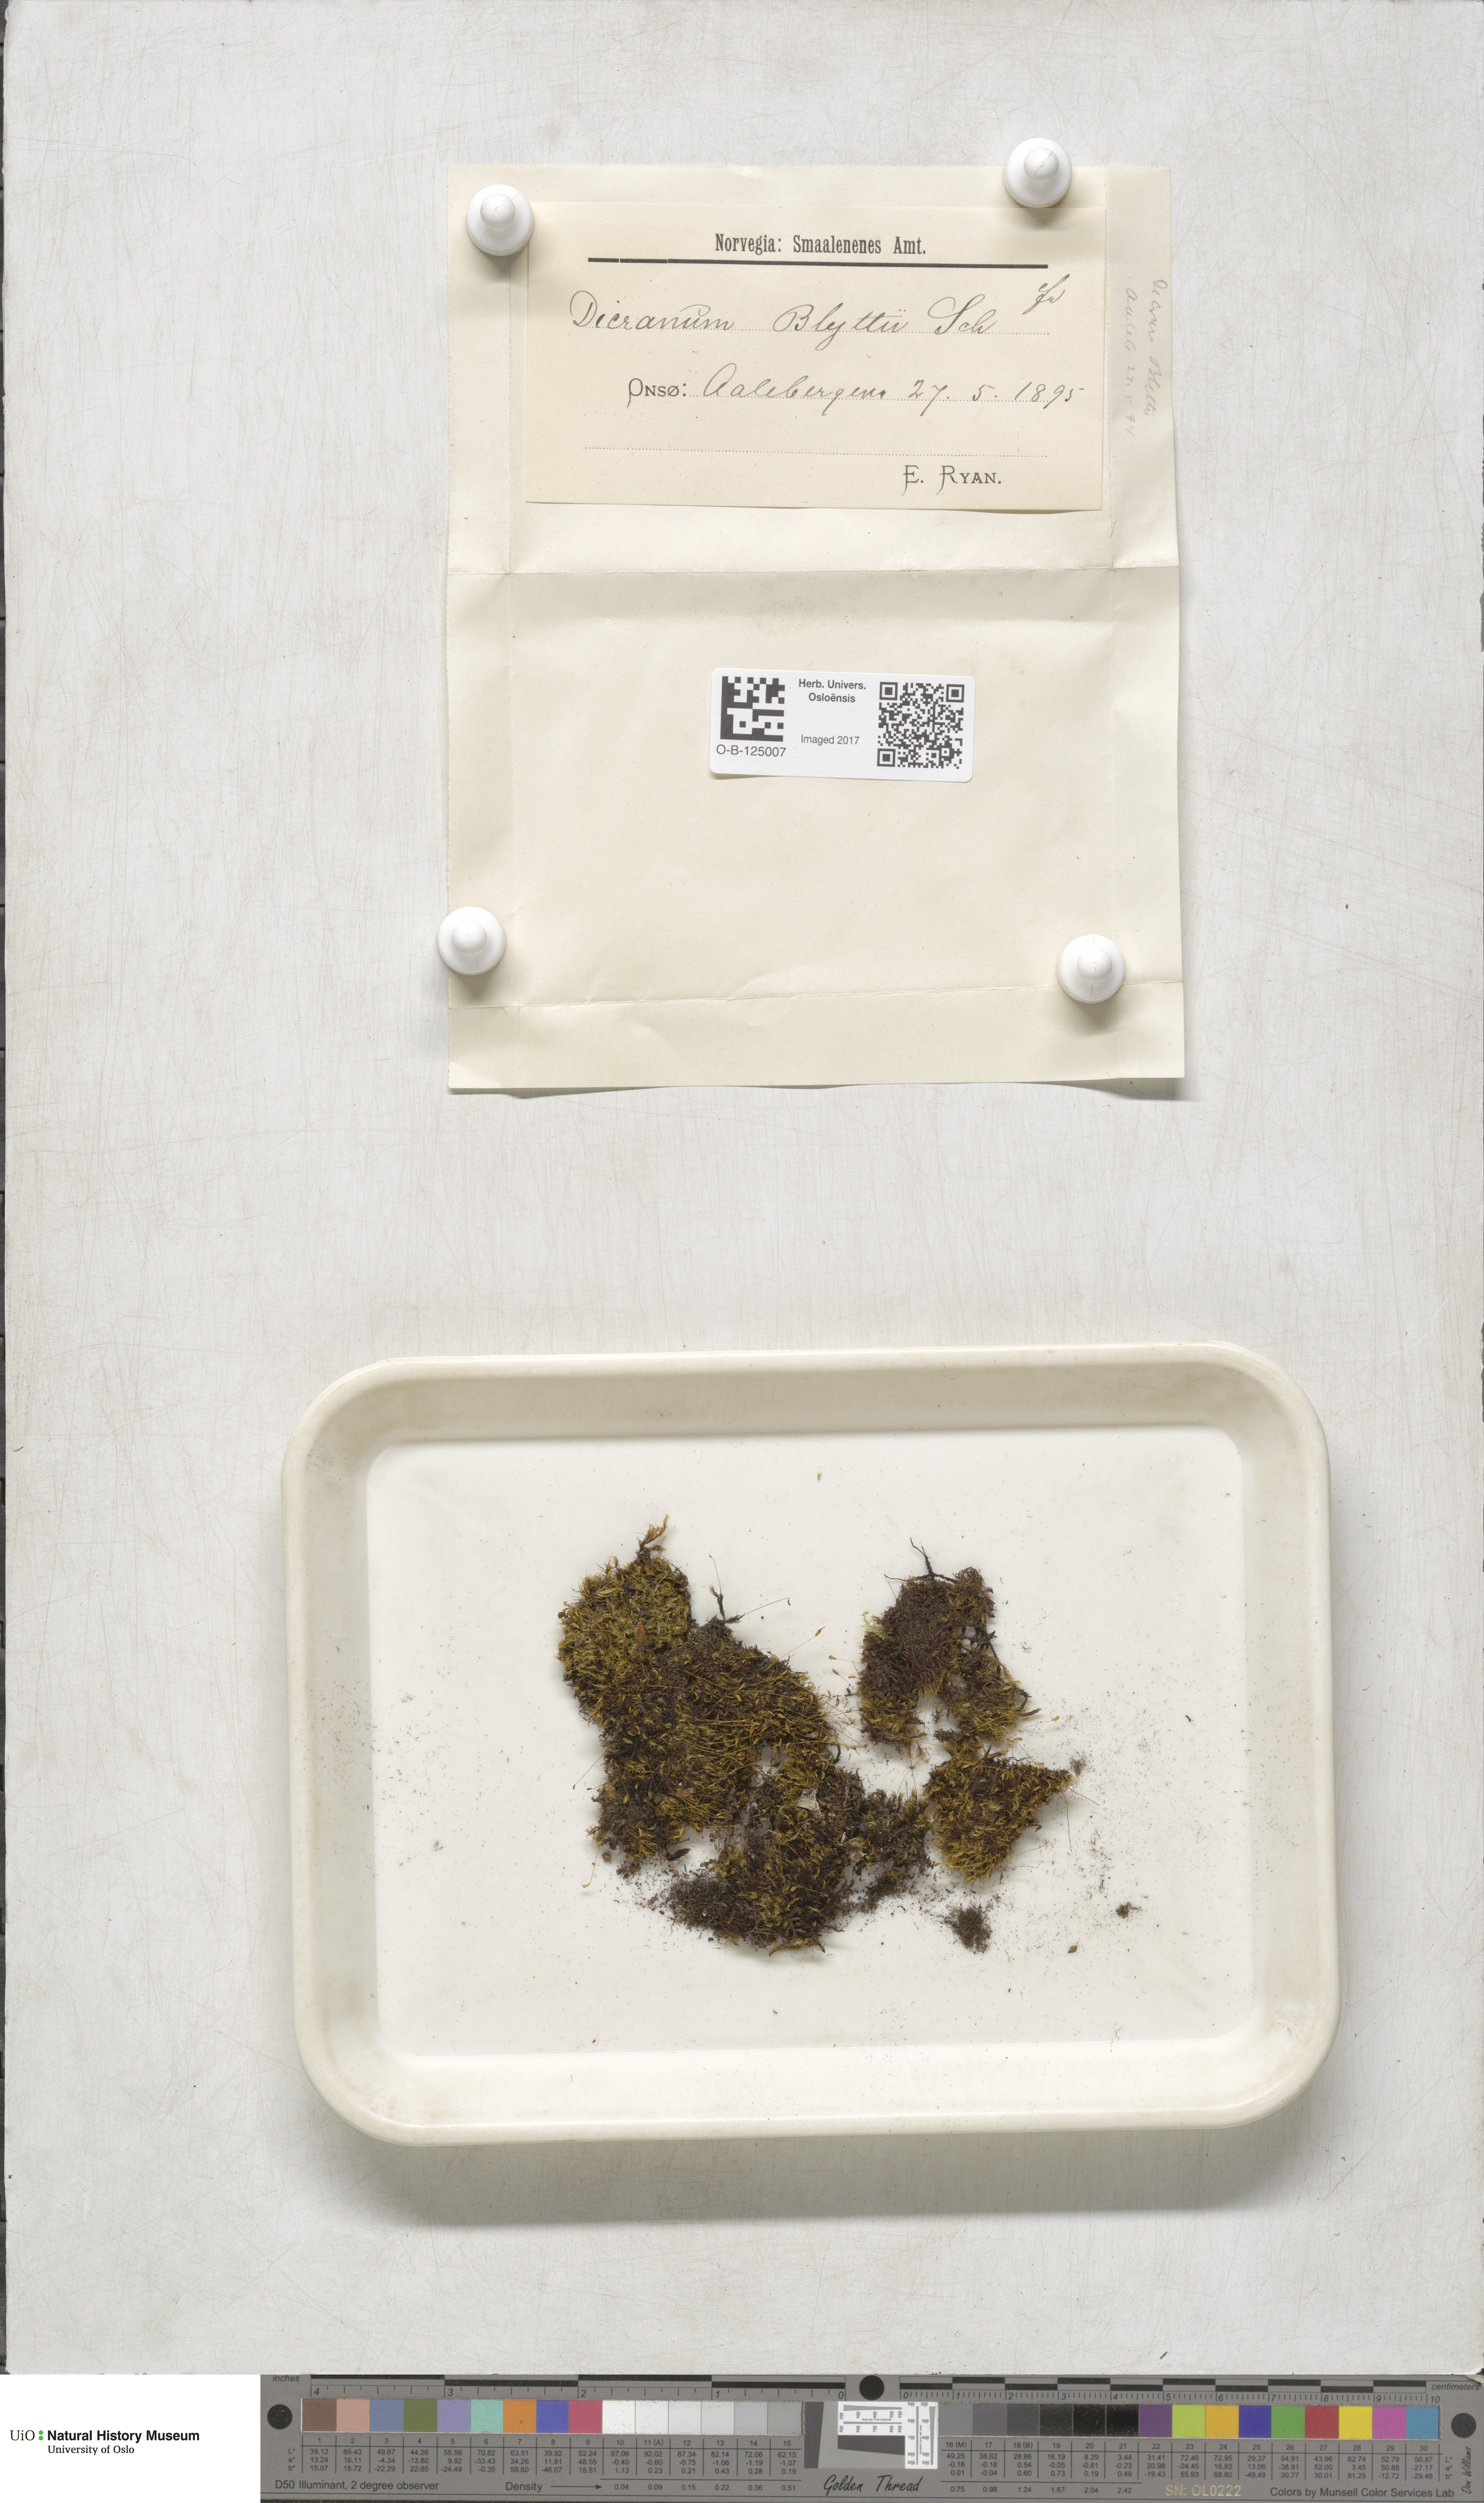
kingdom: Plantae
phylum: Bryophyta
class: Bryopsida
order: Dicranales
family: Rhabdoweisiaceae
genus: Arctoa
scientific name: Arctoa blyttii
